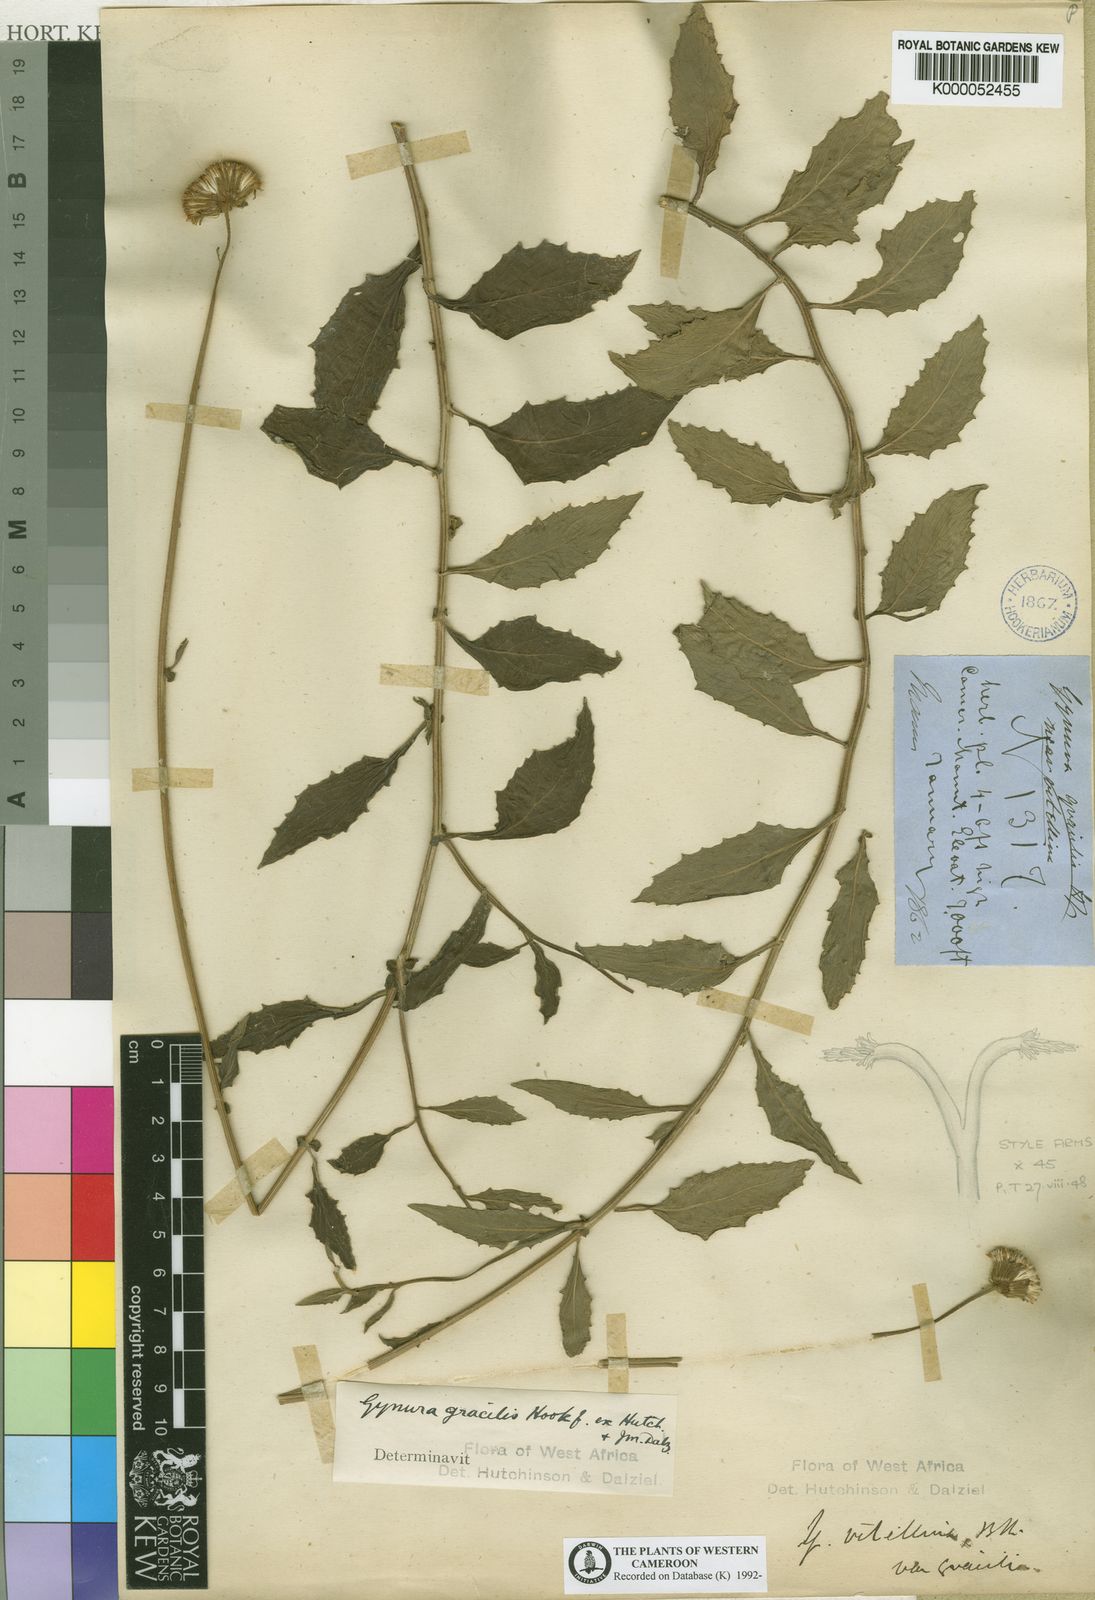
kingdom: Plantae
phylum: Tracheophyta
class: Magnoliopsida
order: Asterales
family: Asteraceae
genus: Crassocephalum
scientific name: Crassocephalum gracile
